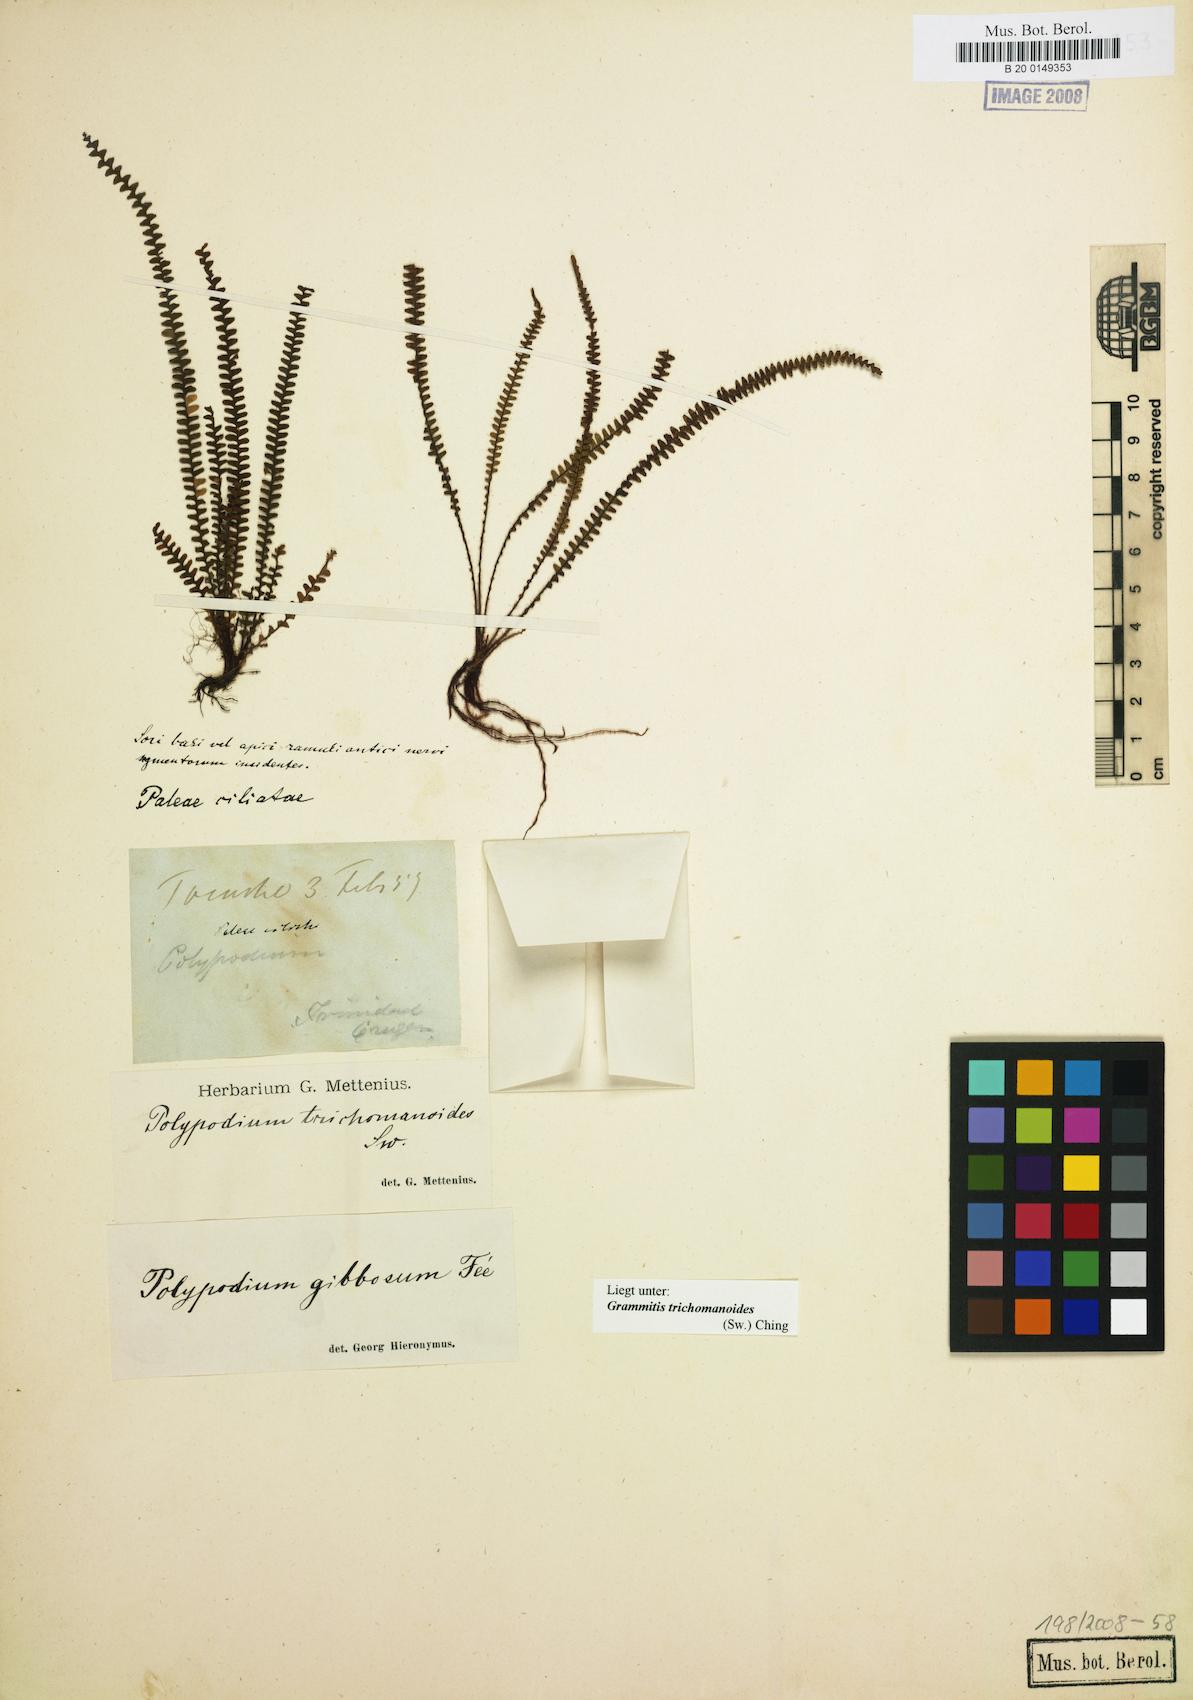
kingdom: Plantae
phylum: Tracheophyta
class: Polypodiopsida
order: Polypodiales
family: Polypodiaceae
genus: Moranopteris
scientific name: Moranopteris taenifolia
